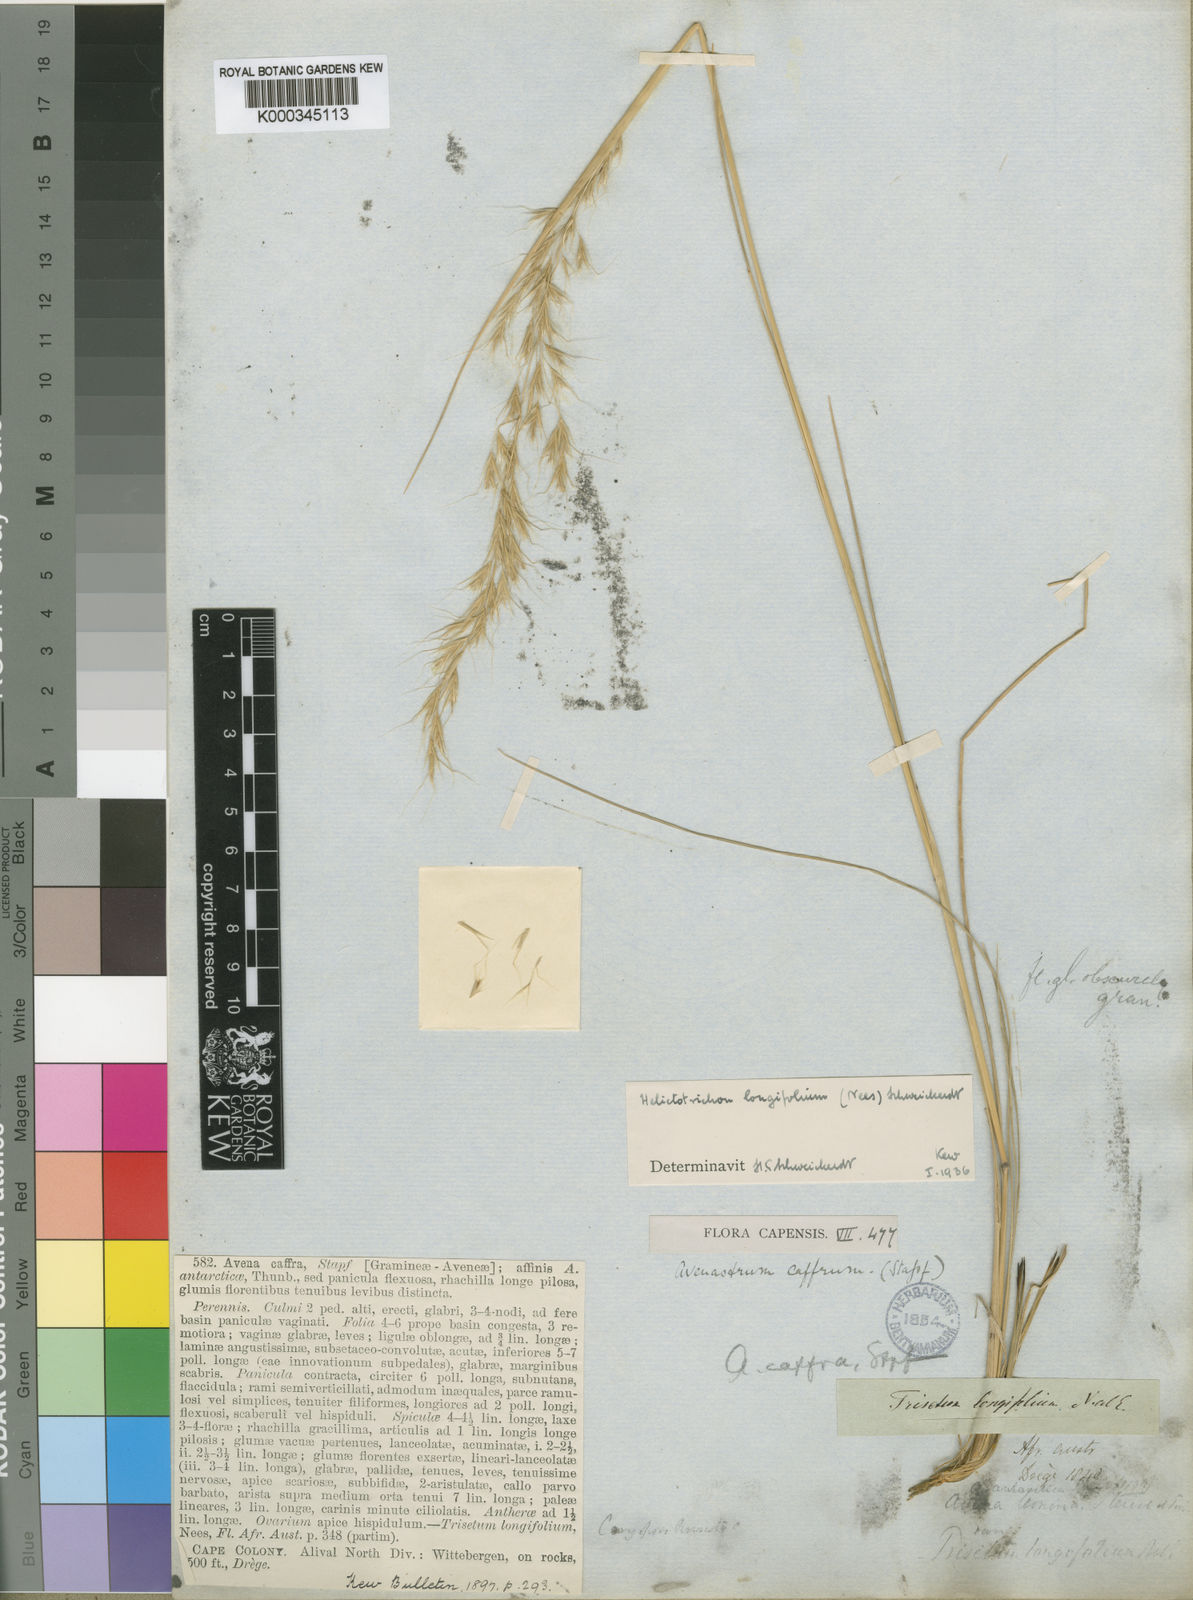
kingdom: Plantae
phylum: Tracheophyta
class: Liliopsida
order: Poales
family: Poaceae
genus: Trisetopsis
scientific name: Trisetopsis longifolia
